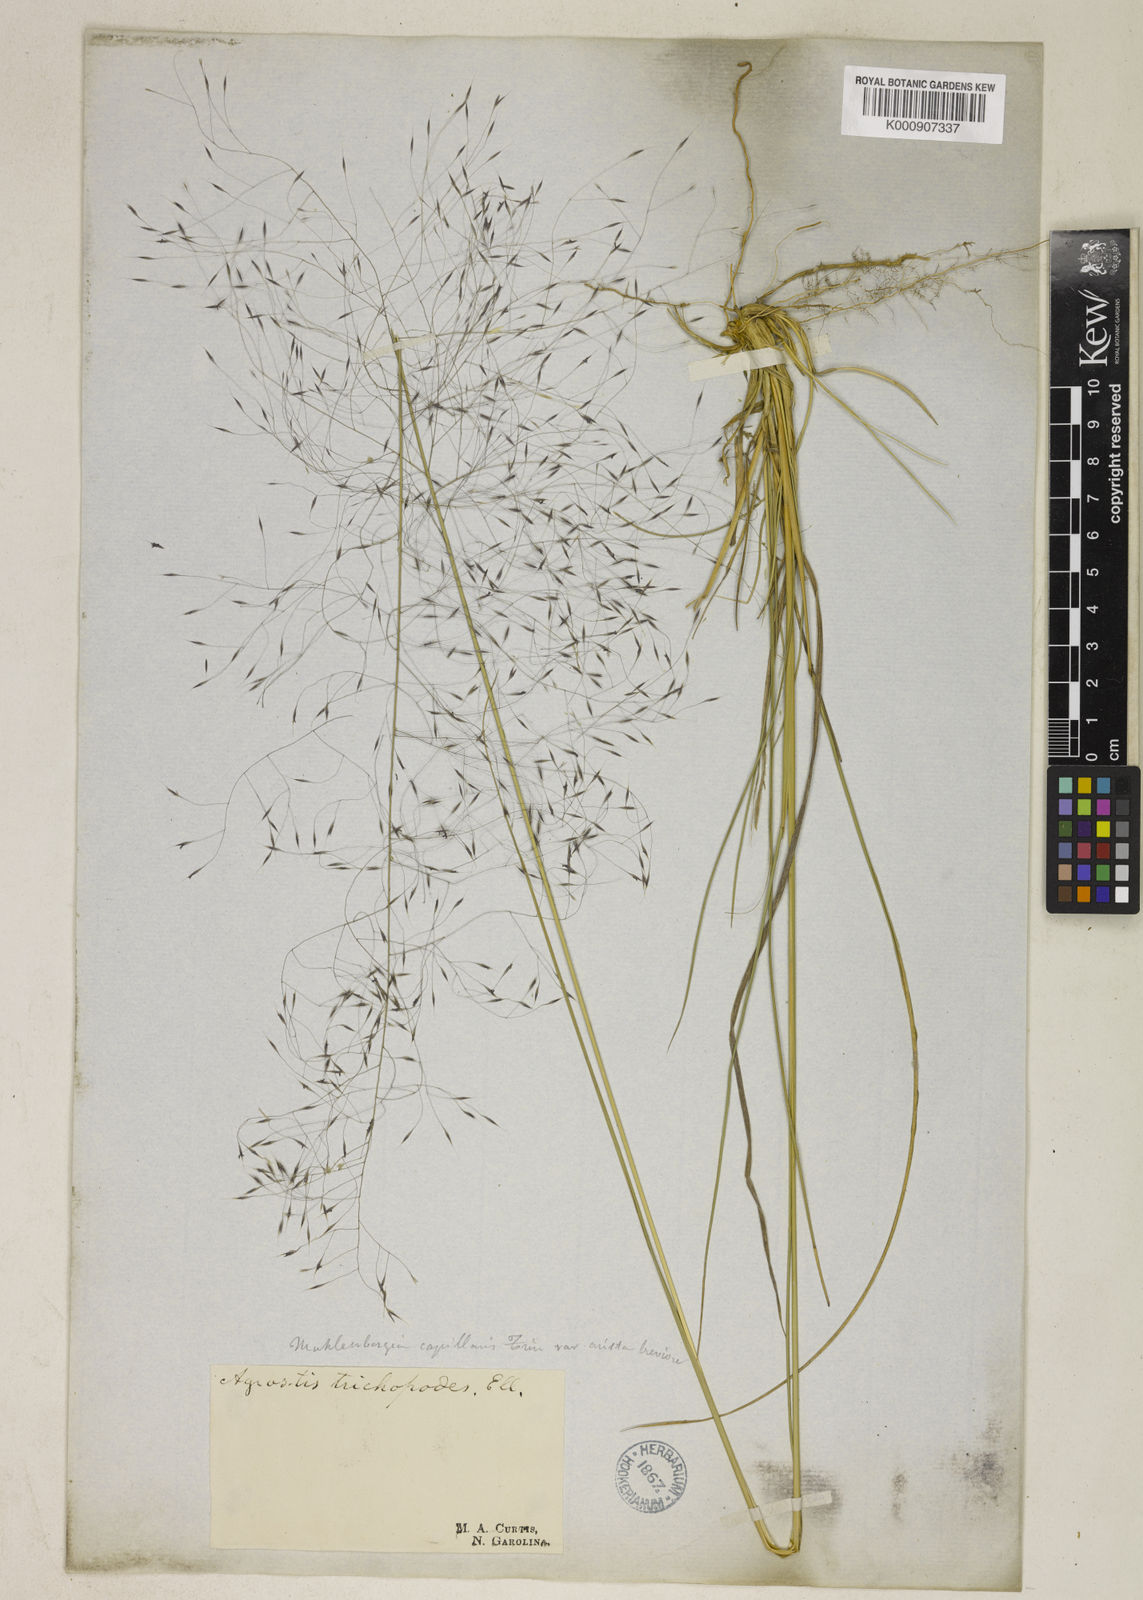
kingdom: Plantae
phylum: Tracheophyta
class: Liliopsida
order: Poales
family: Poaceae
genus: Muhlenbergia
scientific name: Muhlenbergia capillaris
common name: Purple grass
